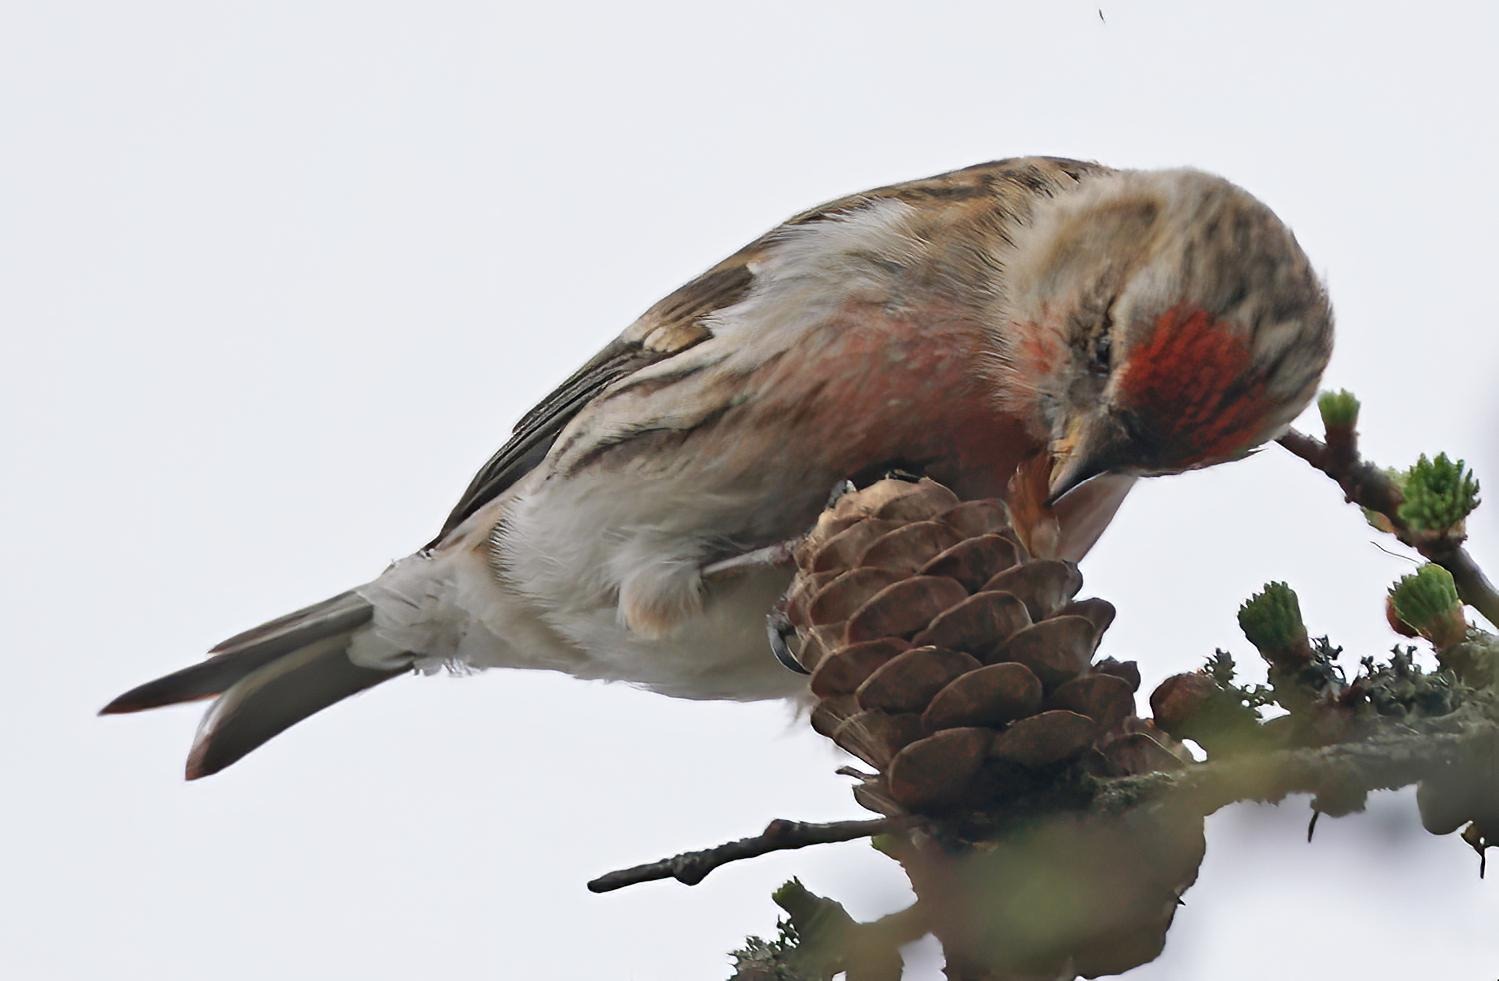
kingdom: Animalia
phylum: Chordata
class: Aves
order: Passeriformes
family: Fringillidae
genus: Acanthis
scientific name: Acanthis flammea
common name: Nordlig gråsisken
